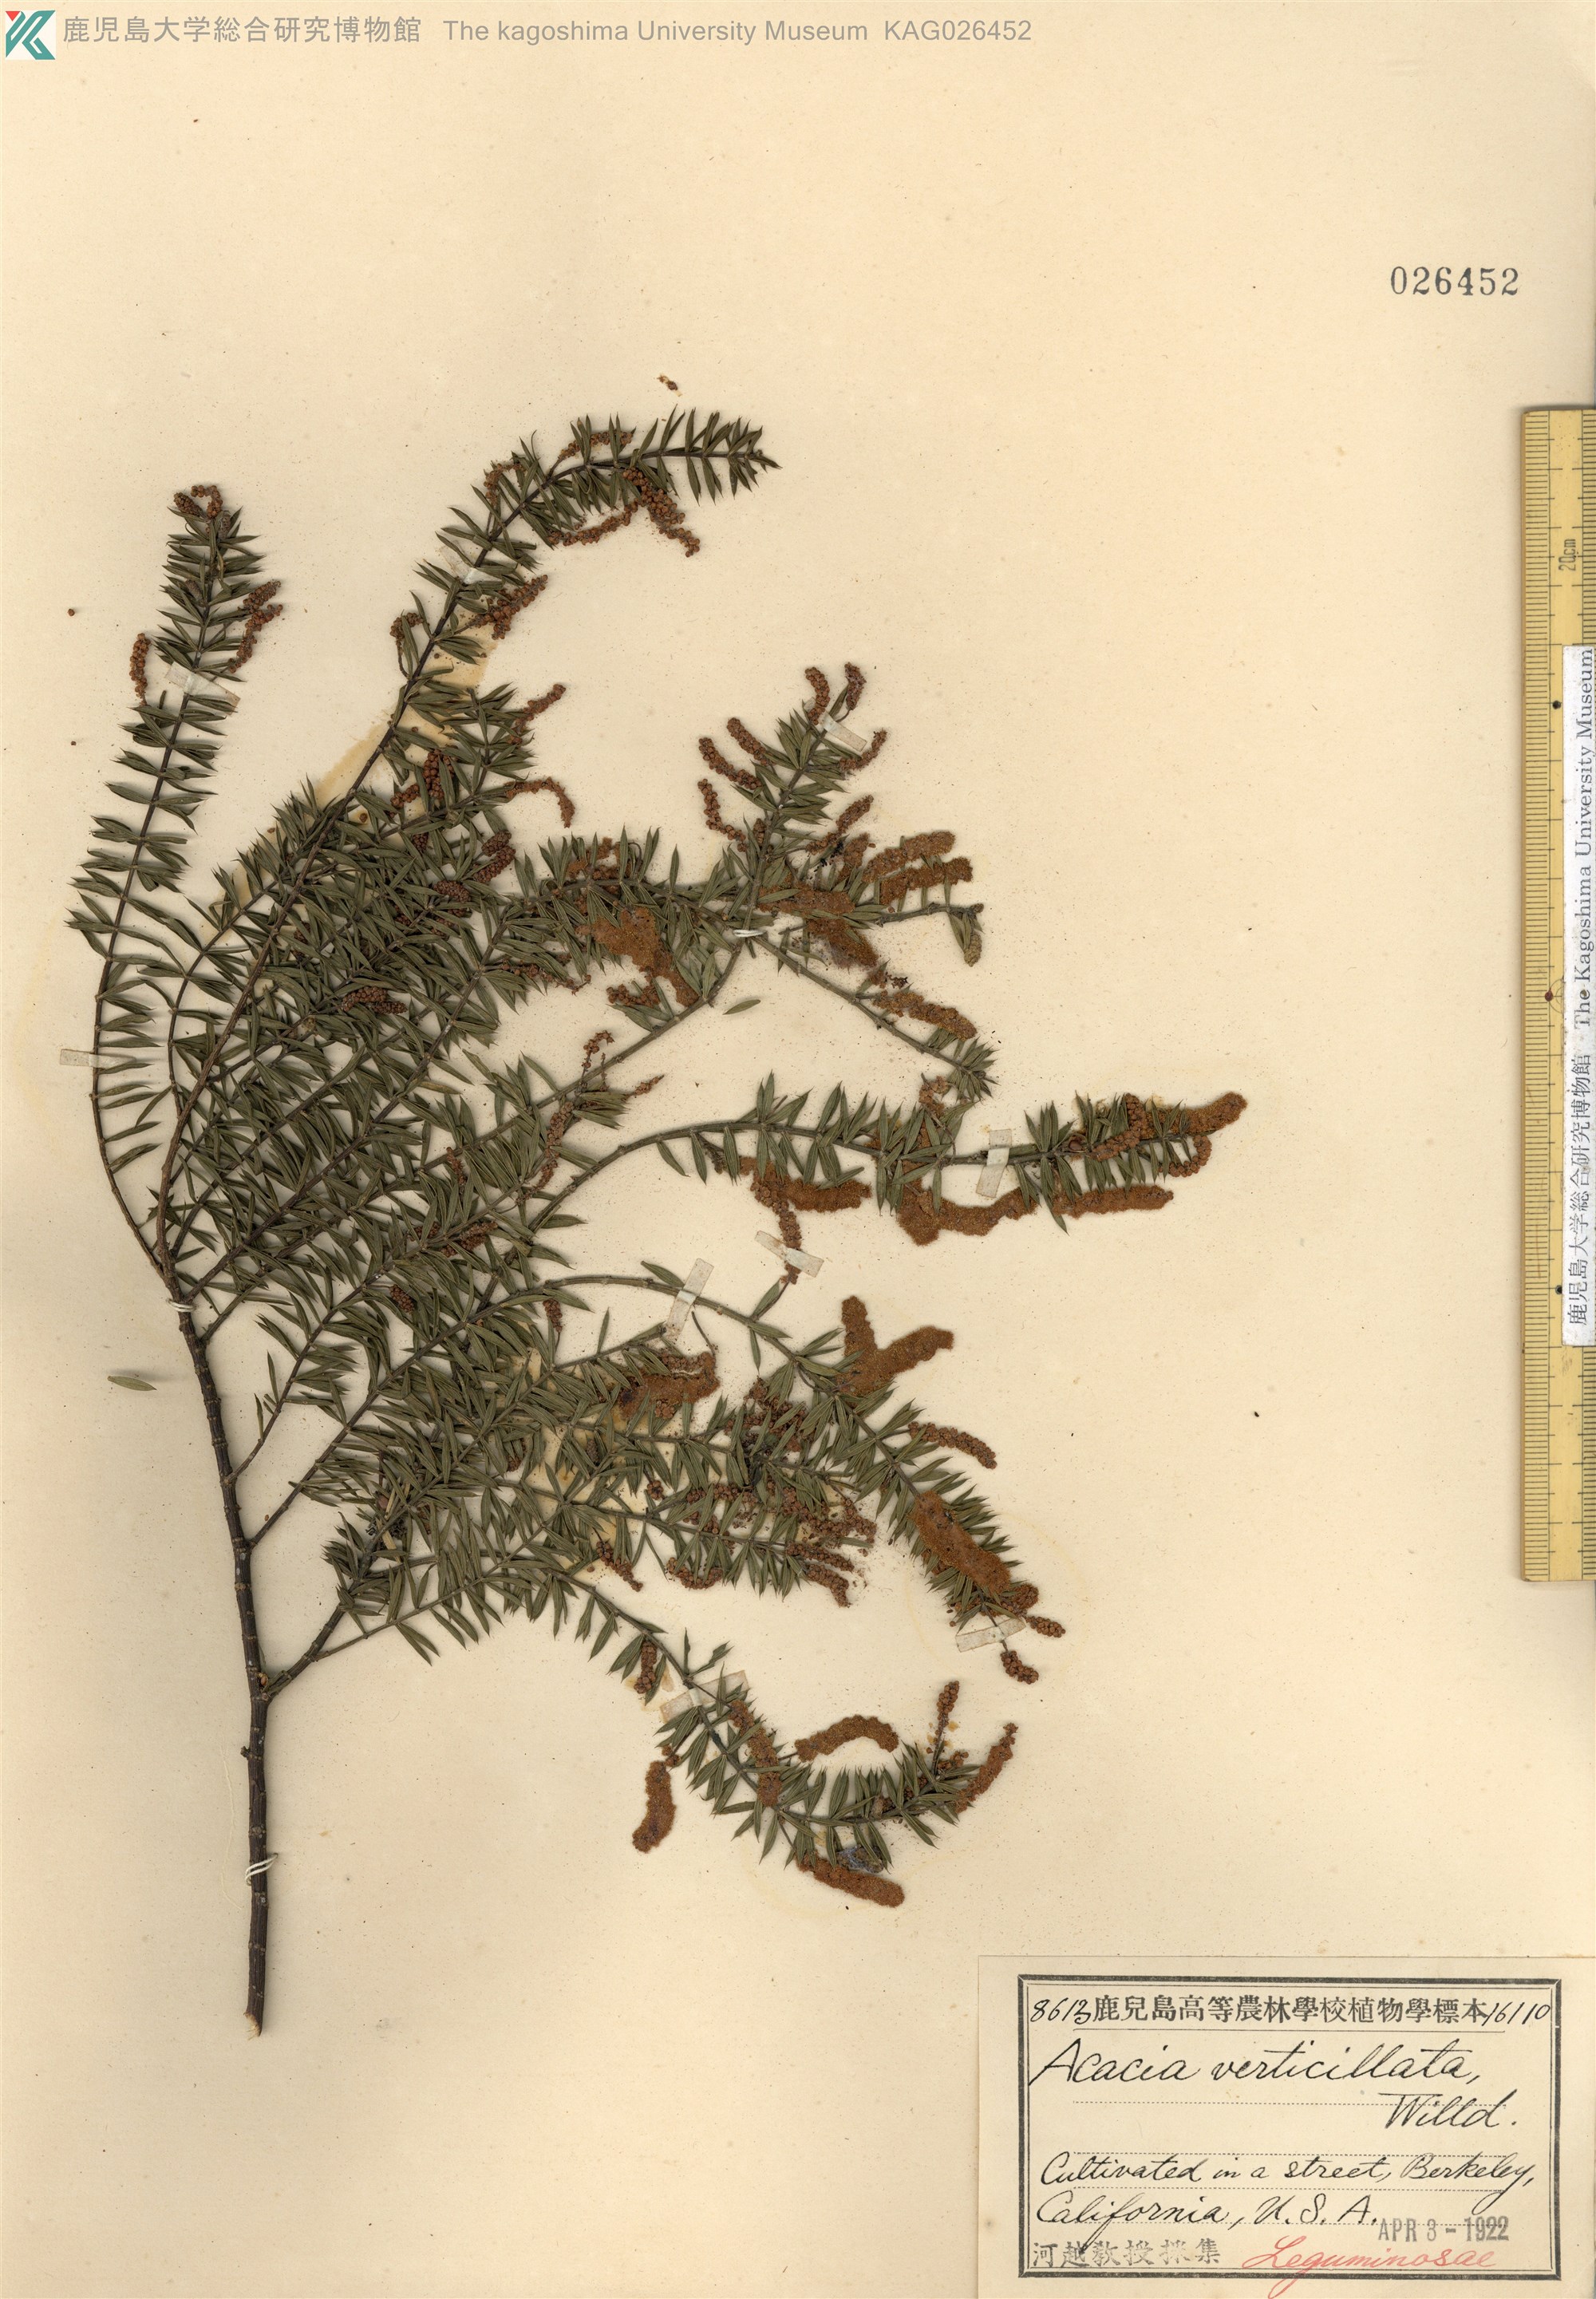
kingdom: Plantae
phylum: Tracheophyta
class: Magnoliopsida
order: Fabales
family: Fabaceae
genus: Acacia
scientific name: Acacia verticillata
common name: Prickly moses
